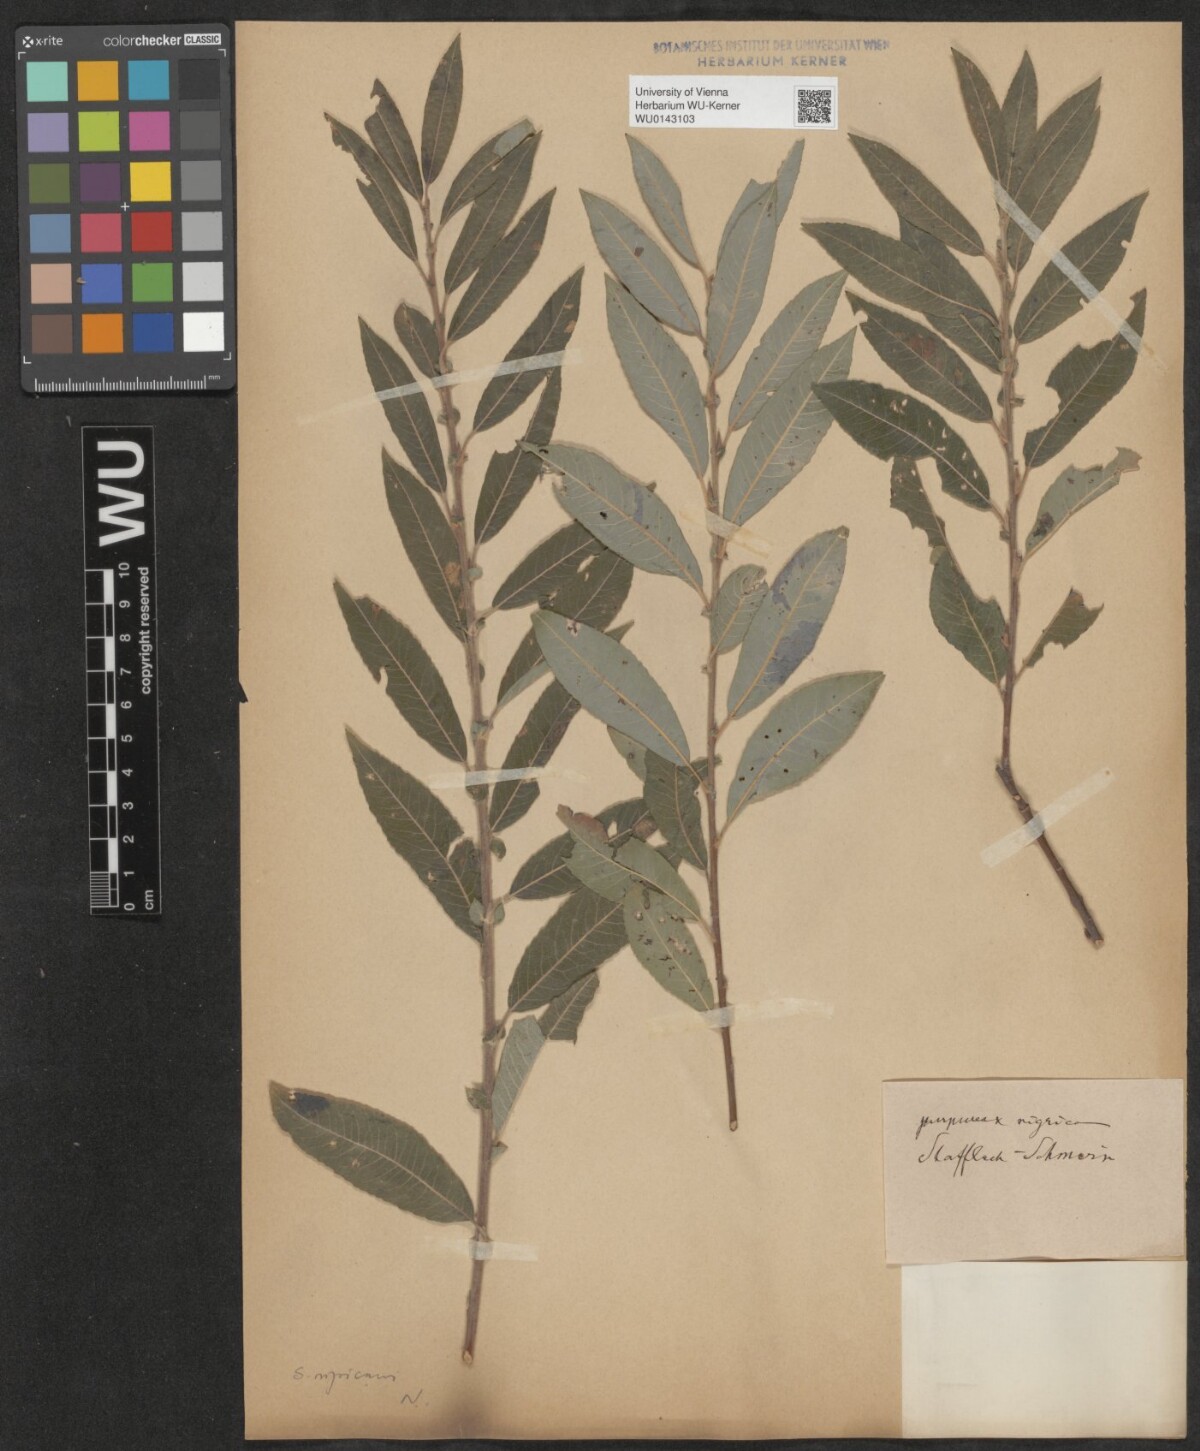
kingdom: Plantae
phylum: Tracheophyta
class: Magnoliopsida
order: Malpighiales
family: Salicaceae
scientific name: Salicaceae
